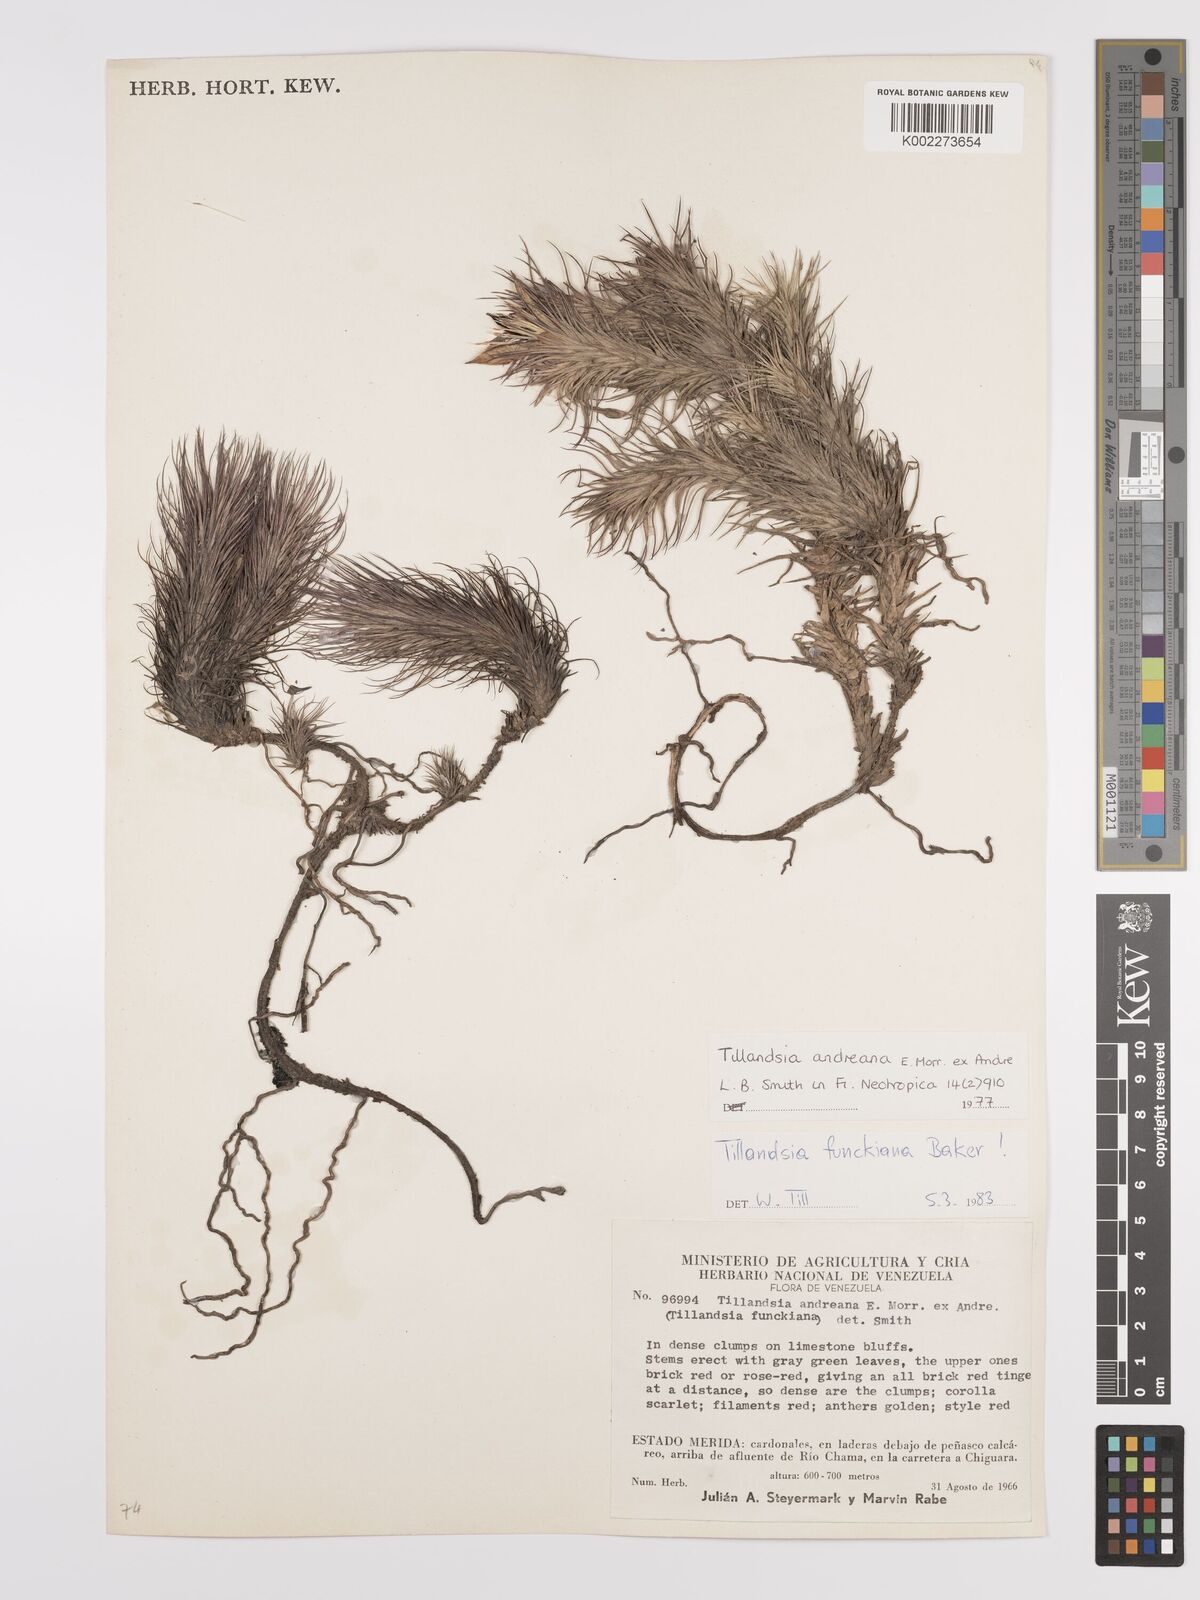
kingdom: Plantae
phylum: Tracheophyta
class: Liliopsida
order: Poales
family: Bromeliaceae
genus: Tillandsia
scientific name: Tillandsia andreana
